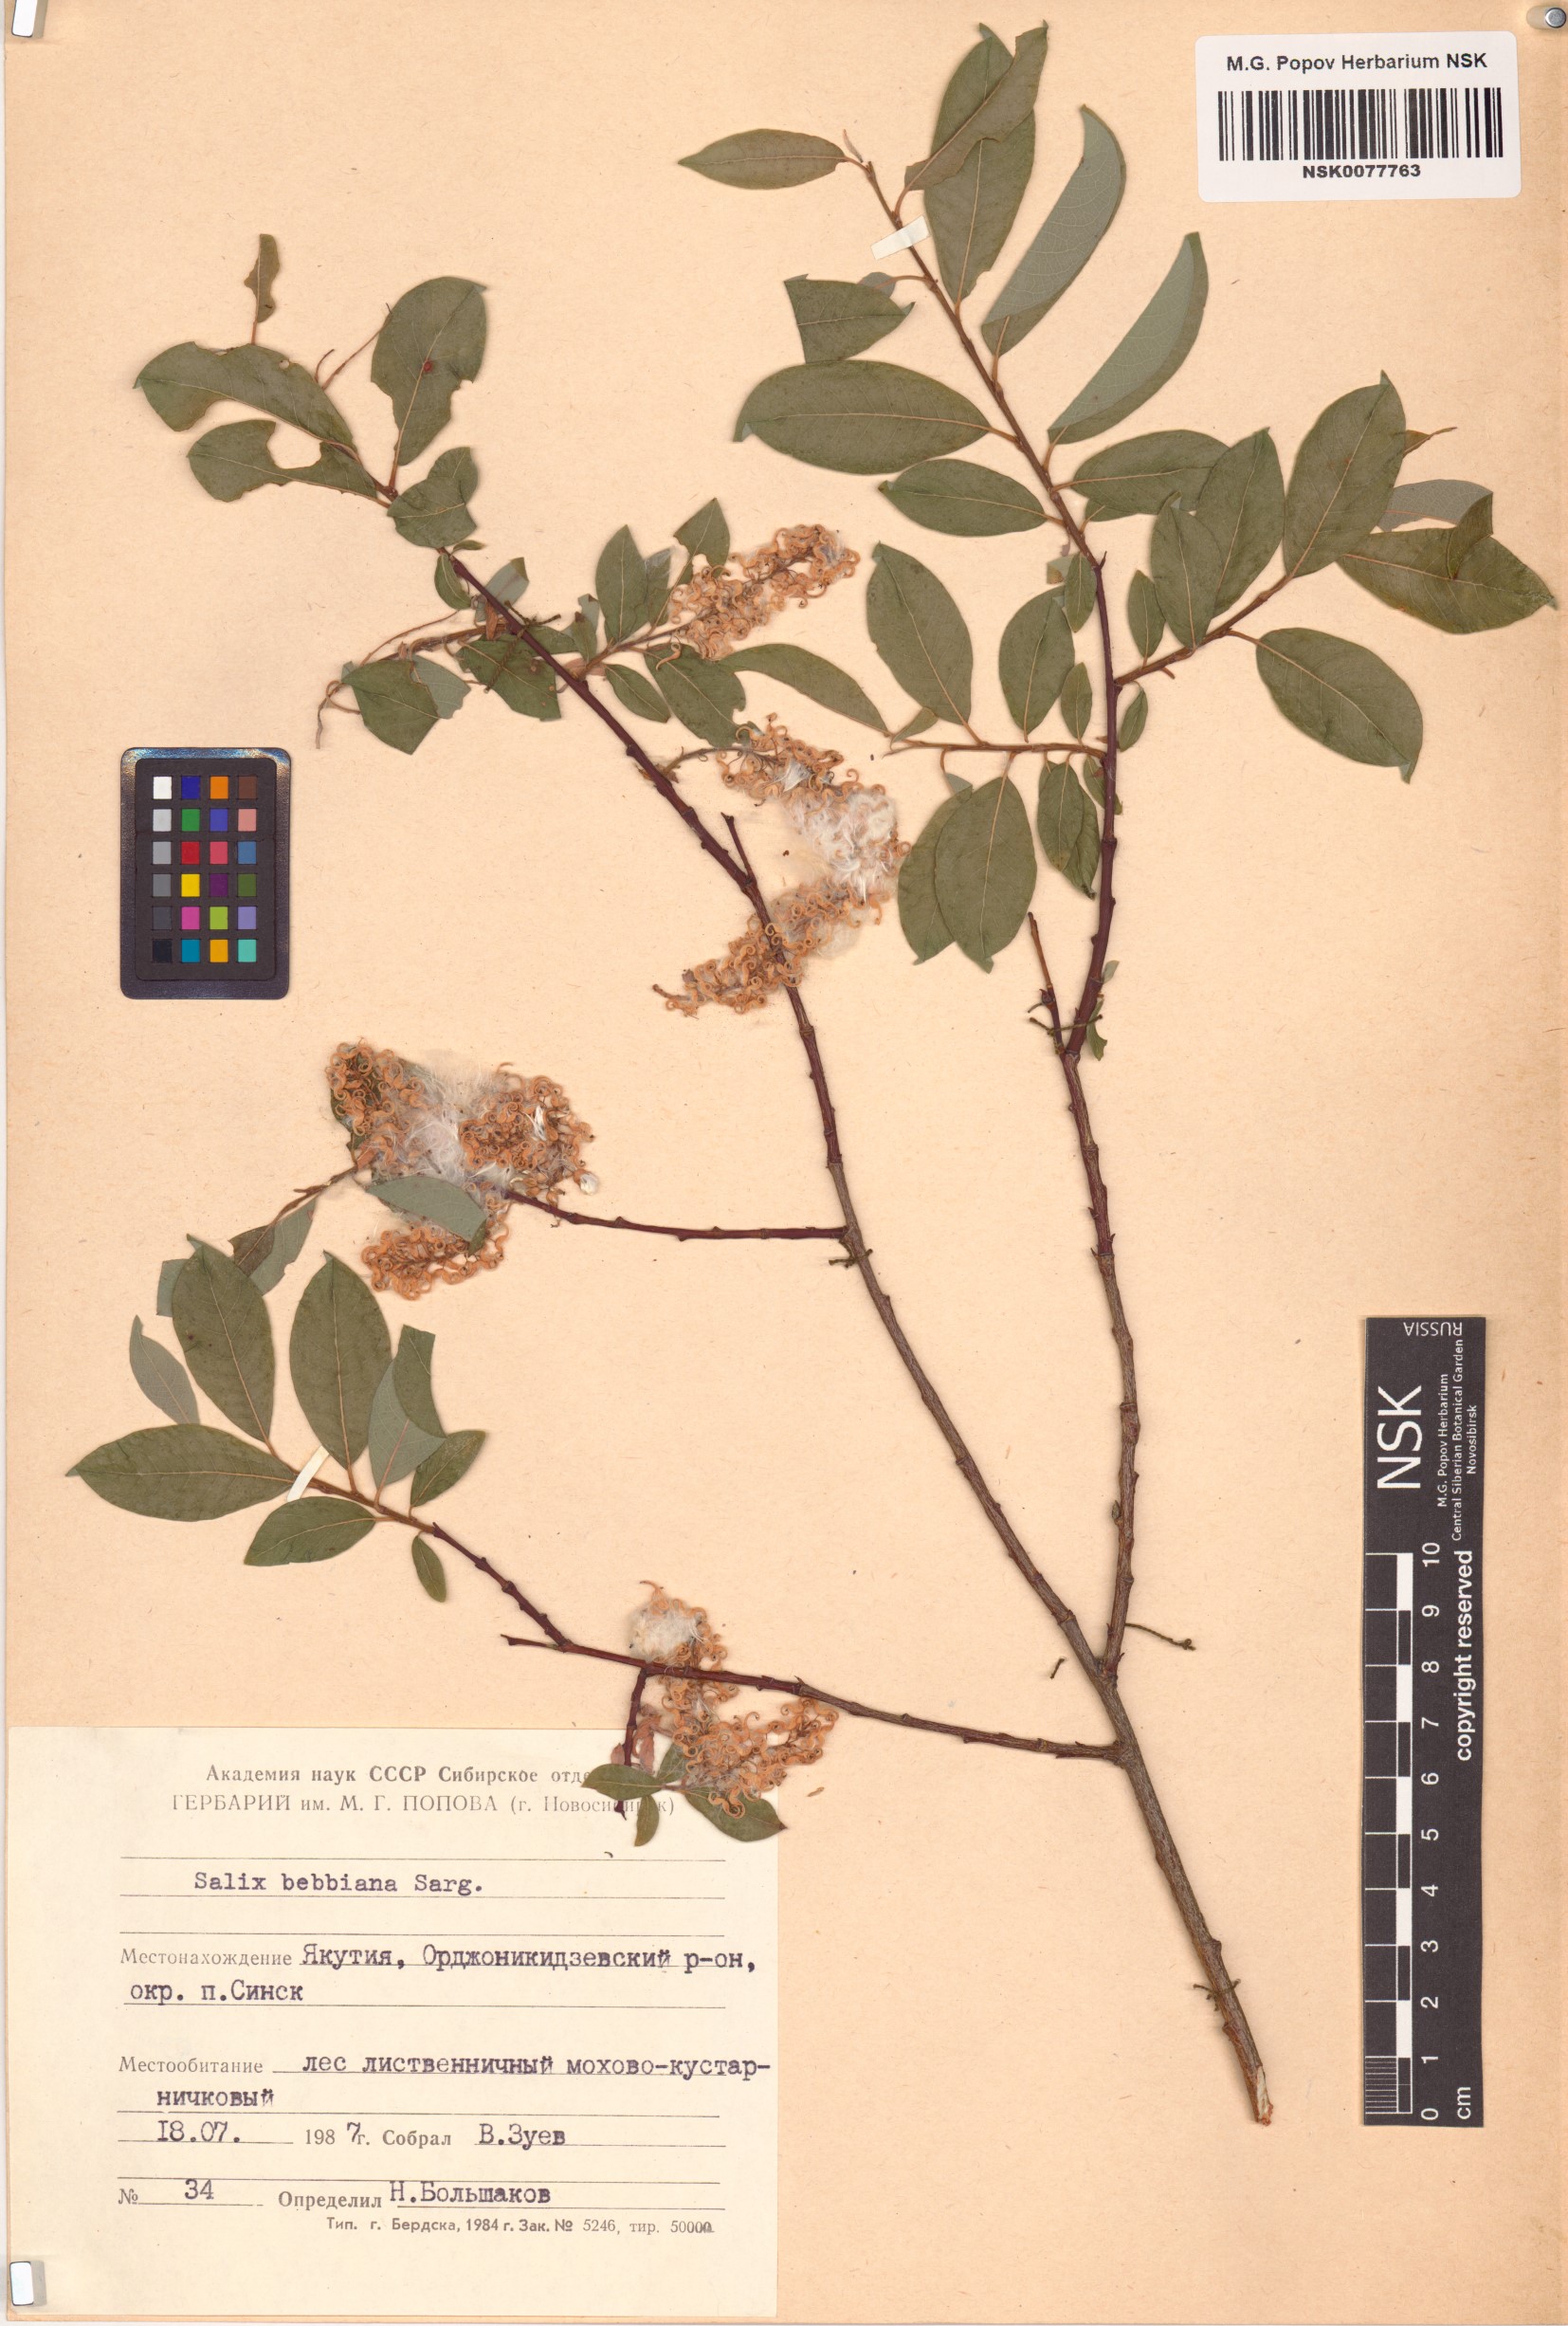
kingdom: Plantae
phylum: Tracheophyta
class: Magnoliopsida
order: Malpighiales
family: Salicaceae
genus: Salix
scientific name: Salix bebbiana
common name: Bebb's willow
